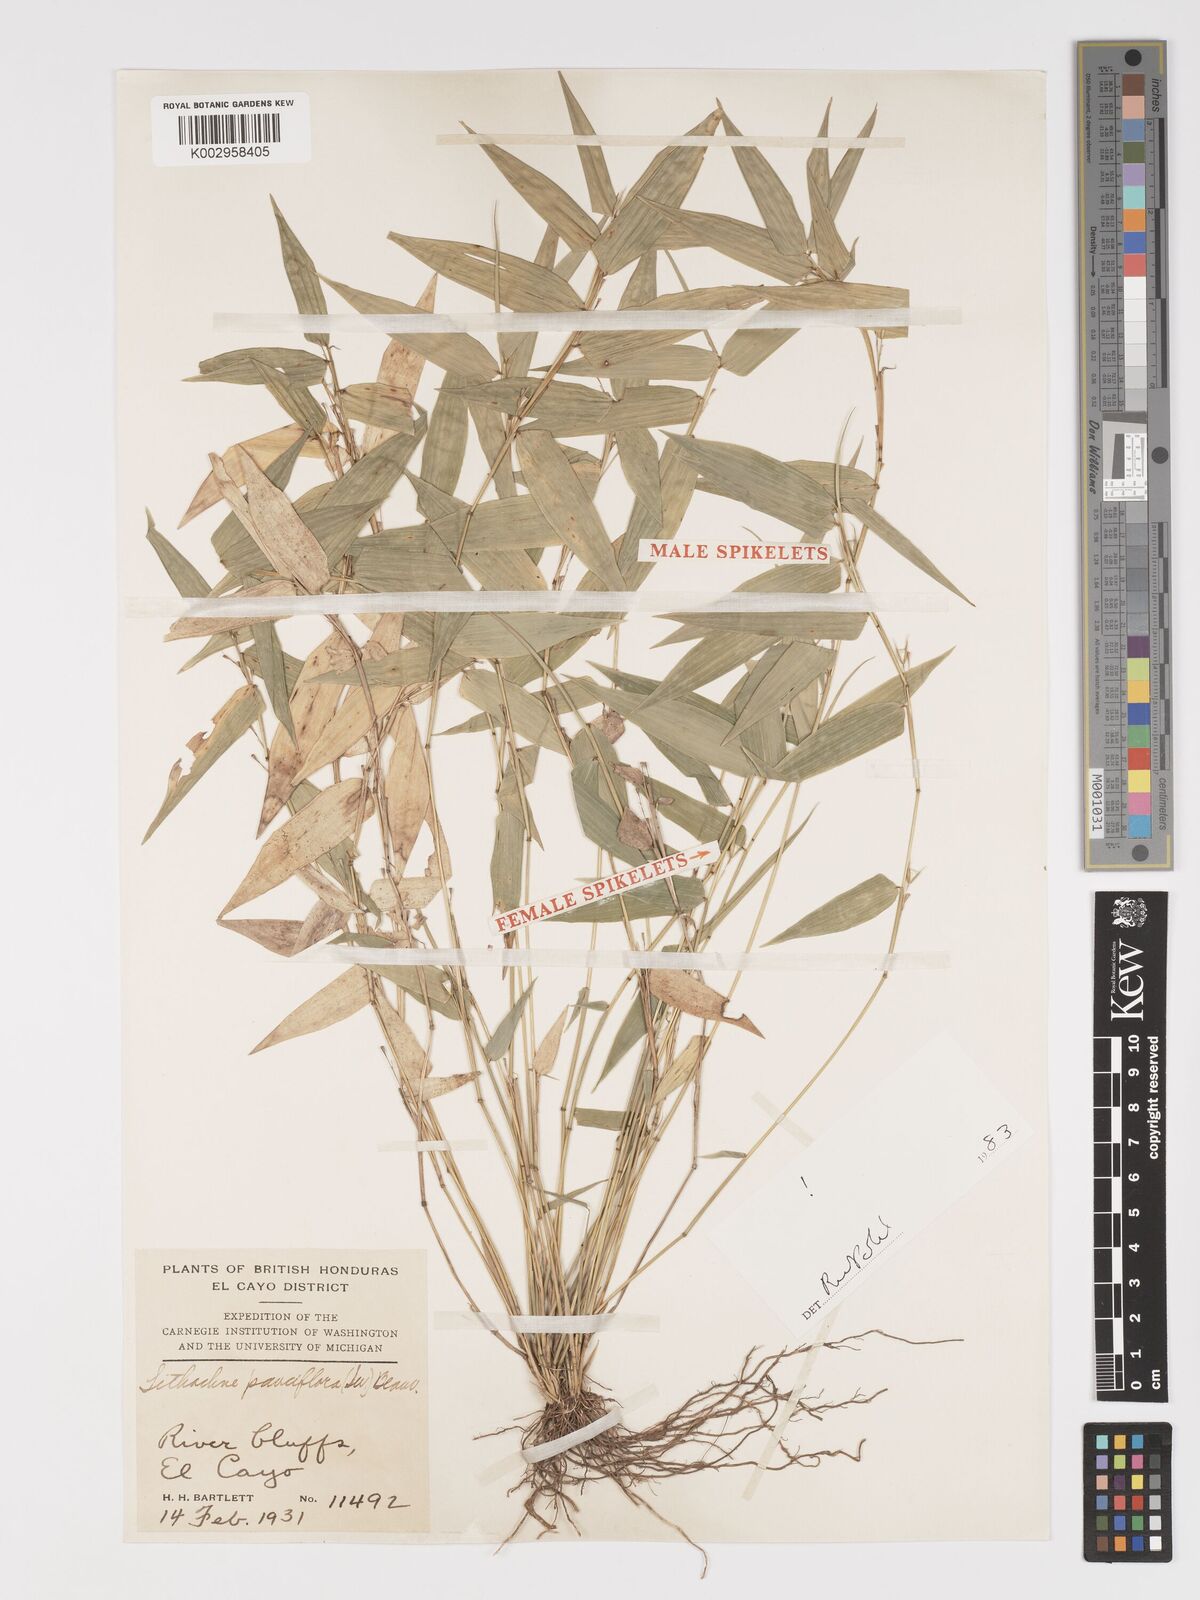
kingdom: Plantae
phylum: Tracheophyta
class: Liliopsida
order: Poales
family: Poaceae
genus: Lithachne
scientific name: Lithachne pauciflora
